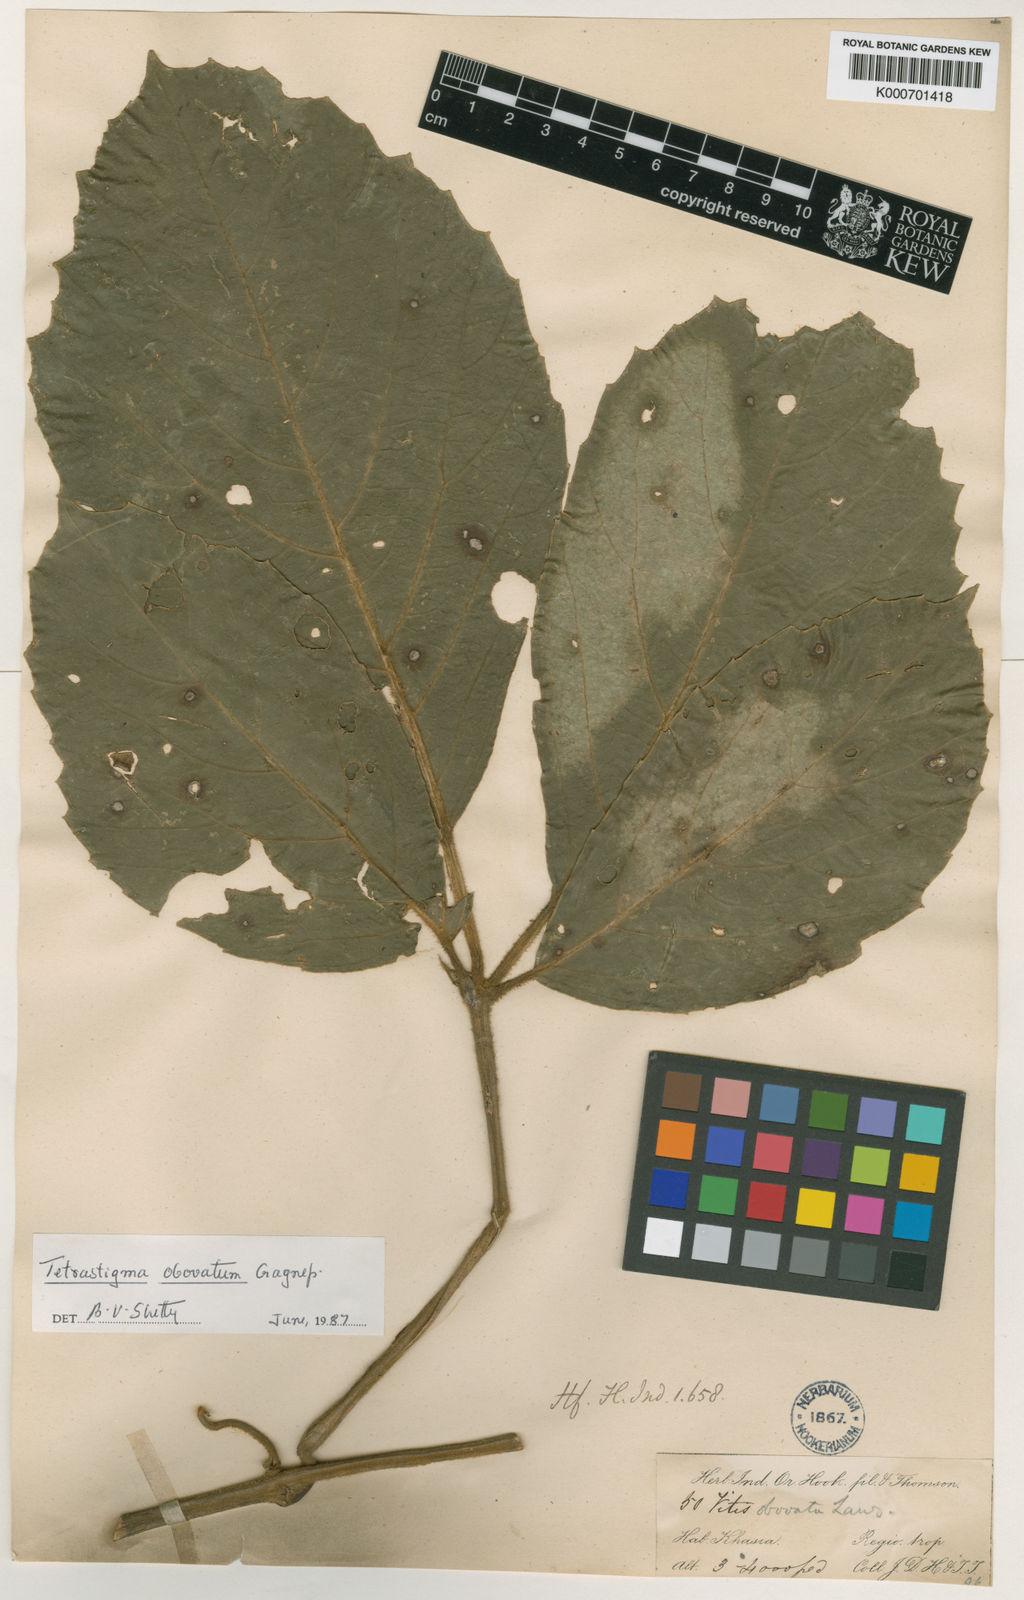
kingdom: Plantae
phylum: Tracheophyta
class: Magnoliopsida
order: Vitales
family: Vitaceae
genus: Tetrastigma
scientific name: Tetrastigma obovatum
